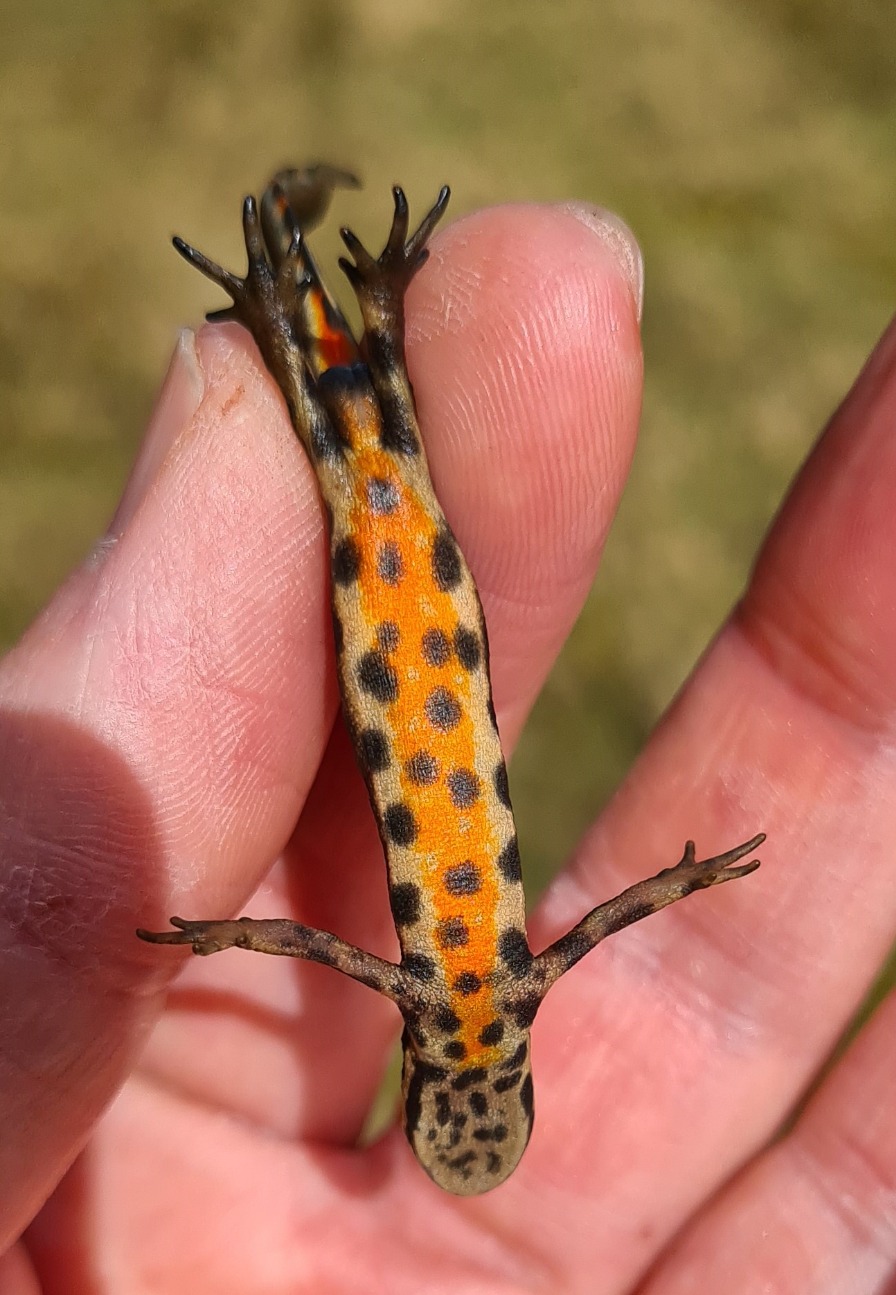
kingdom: Animalia
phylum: Chordata
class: Amphibia
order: Caudata
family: Salamandridae
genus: Lissotriton
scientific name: Lissotriton vulgaris
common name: Lille vandsalamander
